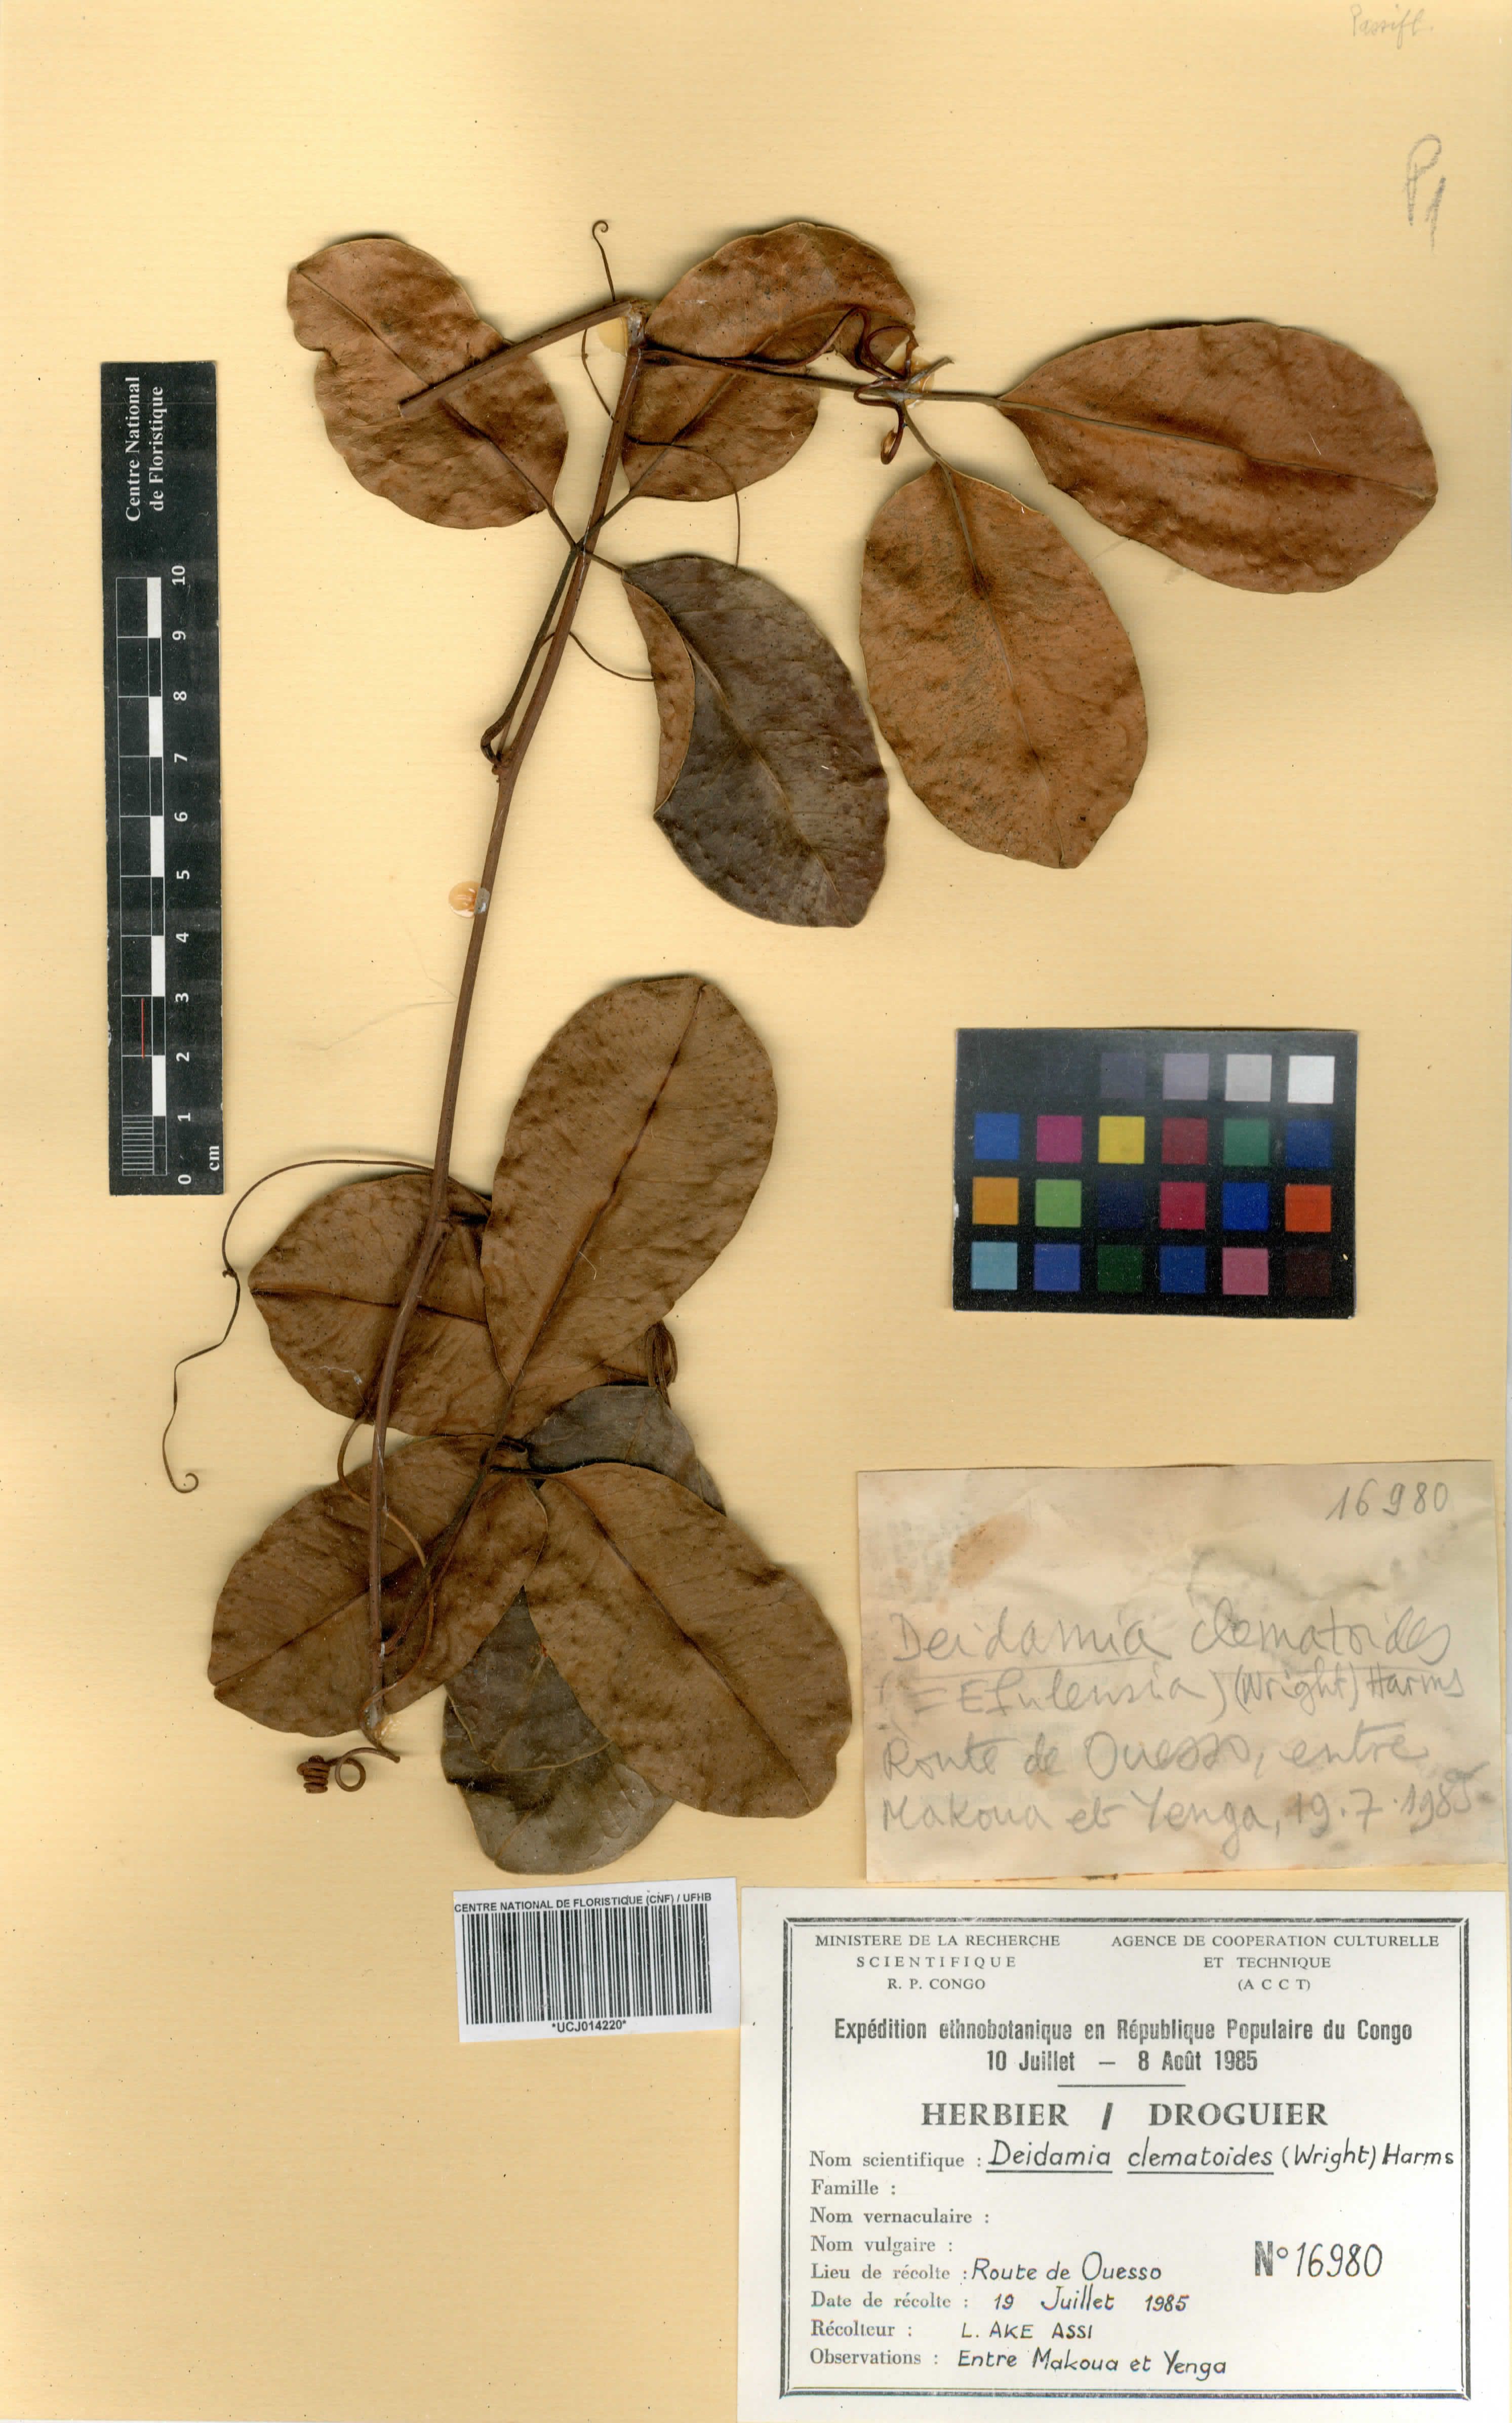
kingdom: Plantae
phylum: Tracheophyta
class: Magnoliopsida
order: Malpighiales
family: Passifloraceae
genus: Efulensia
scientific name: Efulensia clematoides
